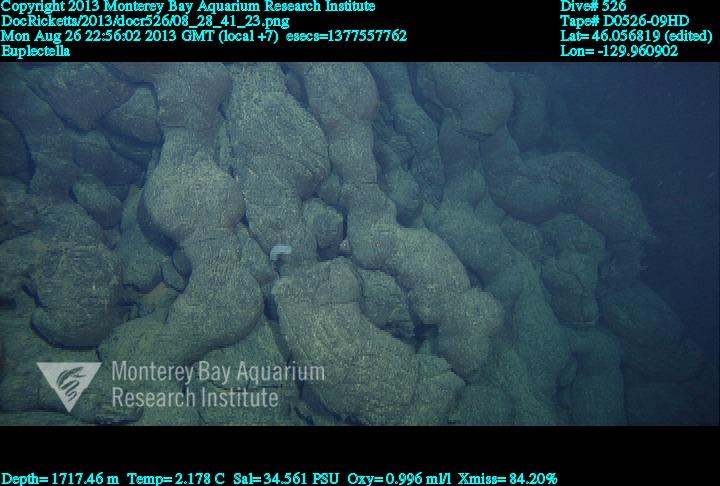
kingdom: Animalia
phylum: Porifera
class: Hexactinellida
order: Lyssacinosida
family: Euplectellidae
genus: Euplectella
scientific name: Euplectella
